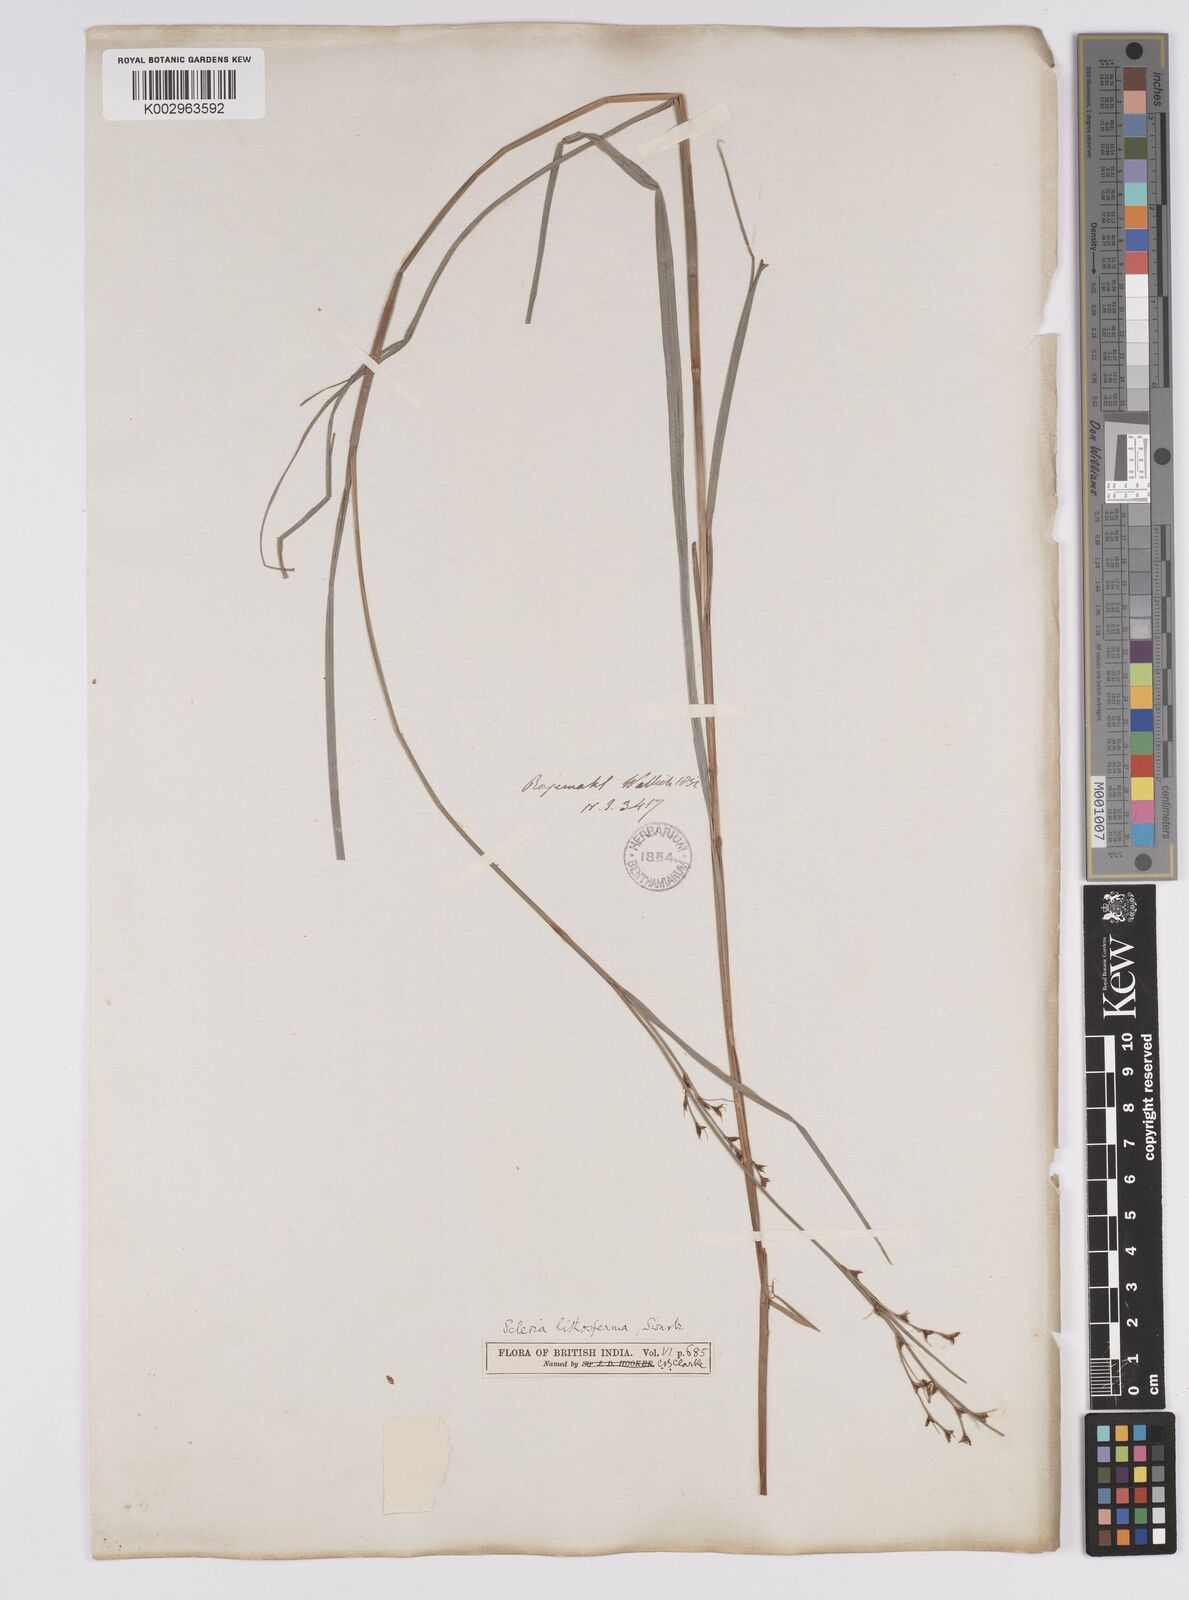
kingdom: Plantae
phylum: Tracheophyta
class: Liliopsida
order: Poales
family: Cyperaceae
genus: Scleria
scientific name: Scleria lithosperma
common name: Florida keys nut-rush
